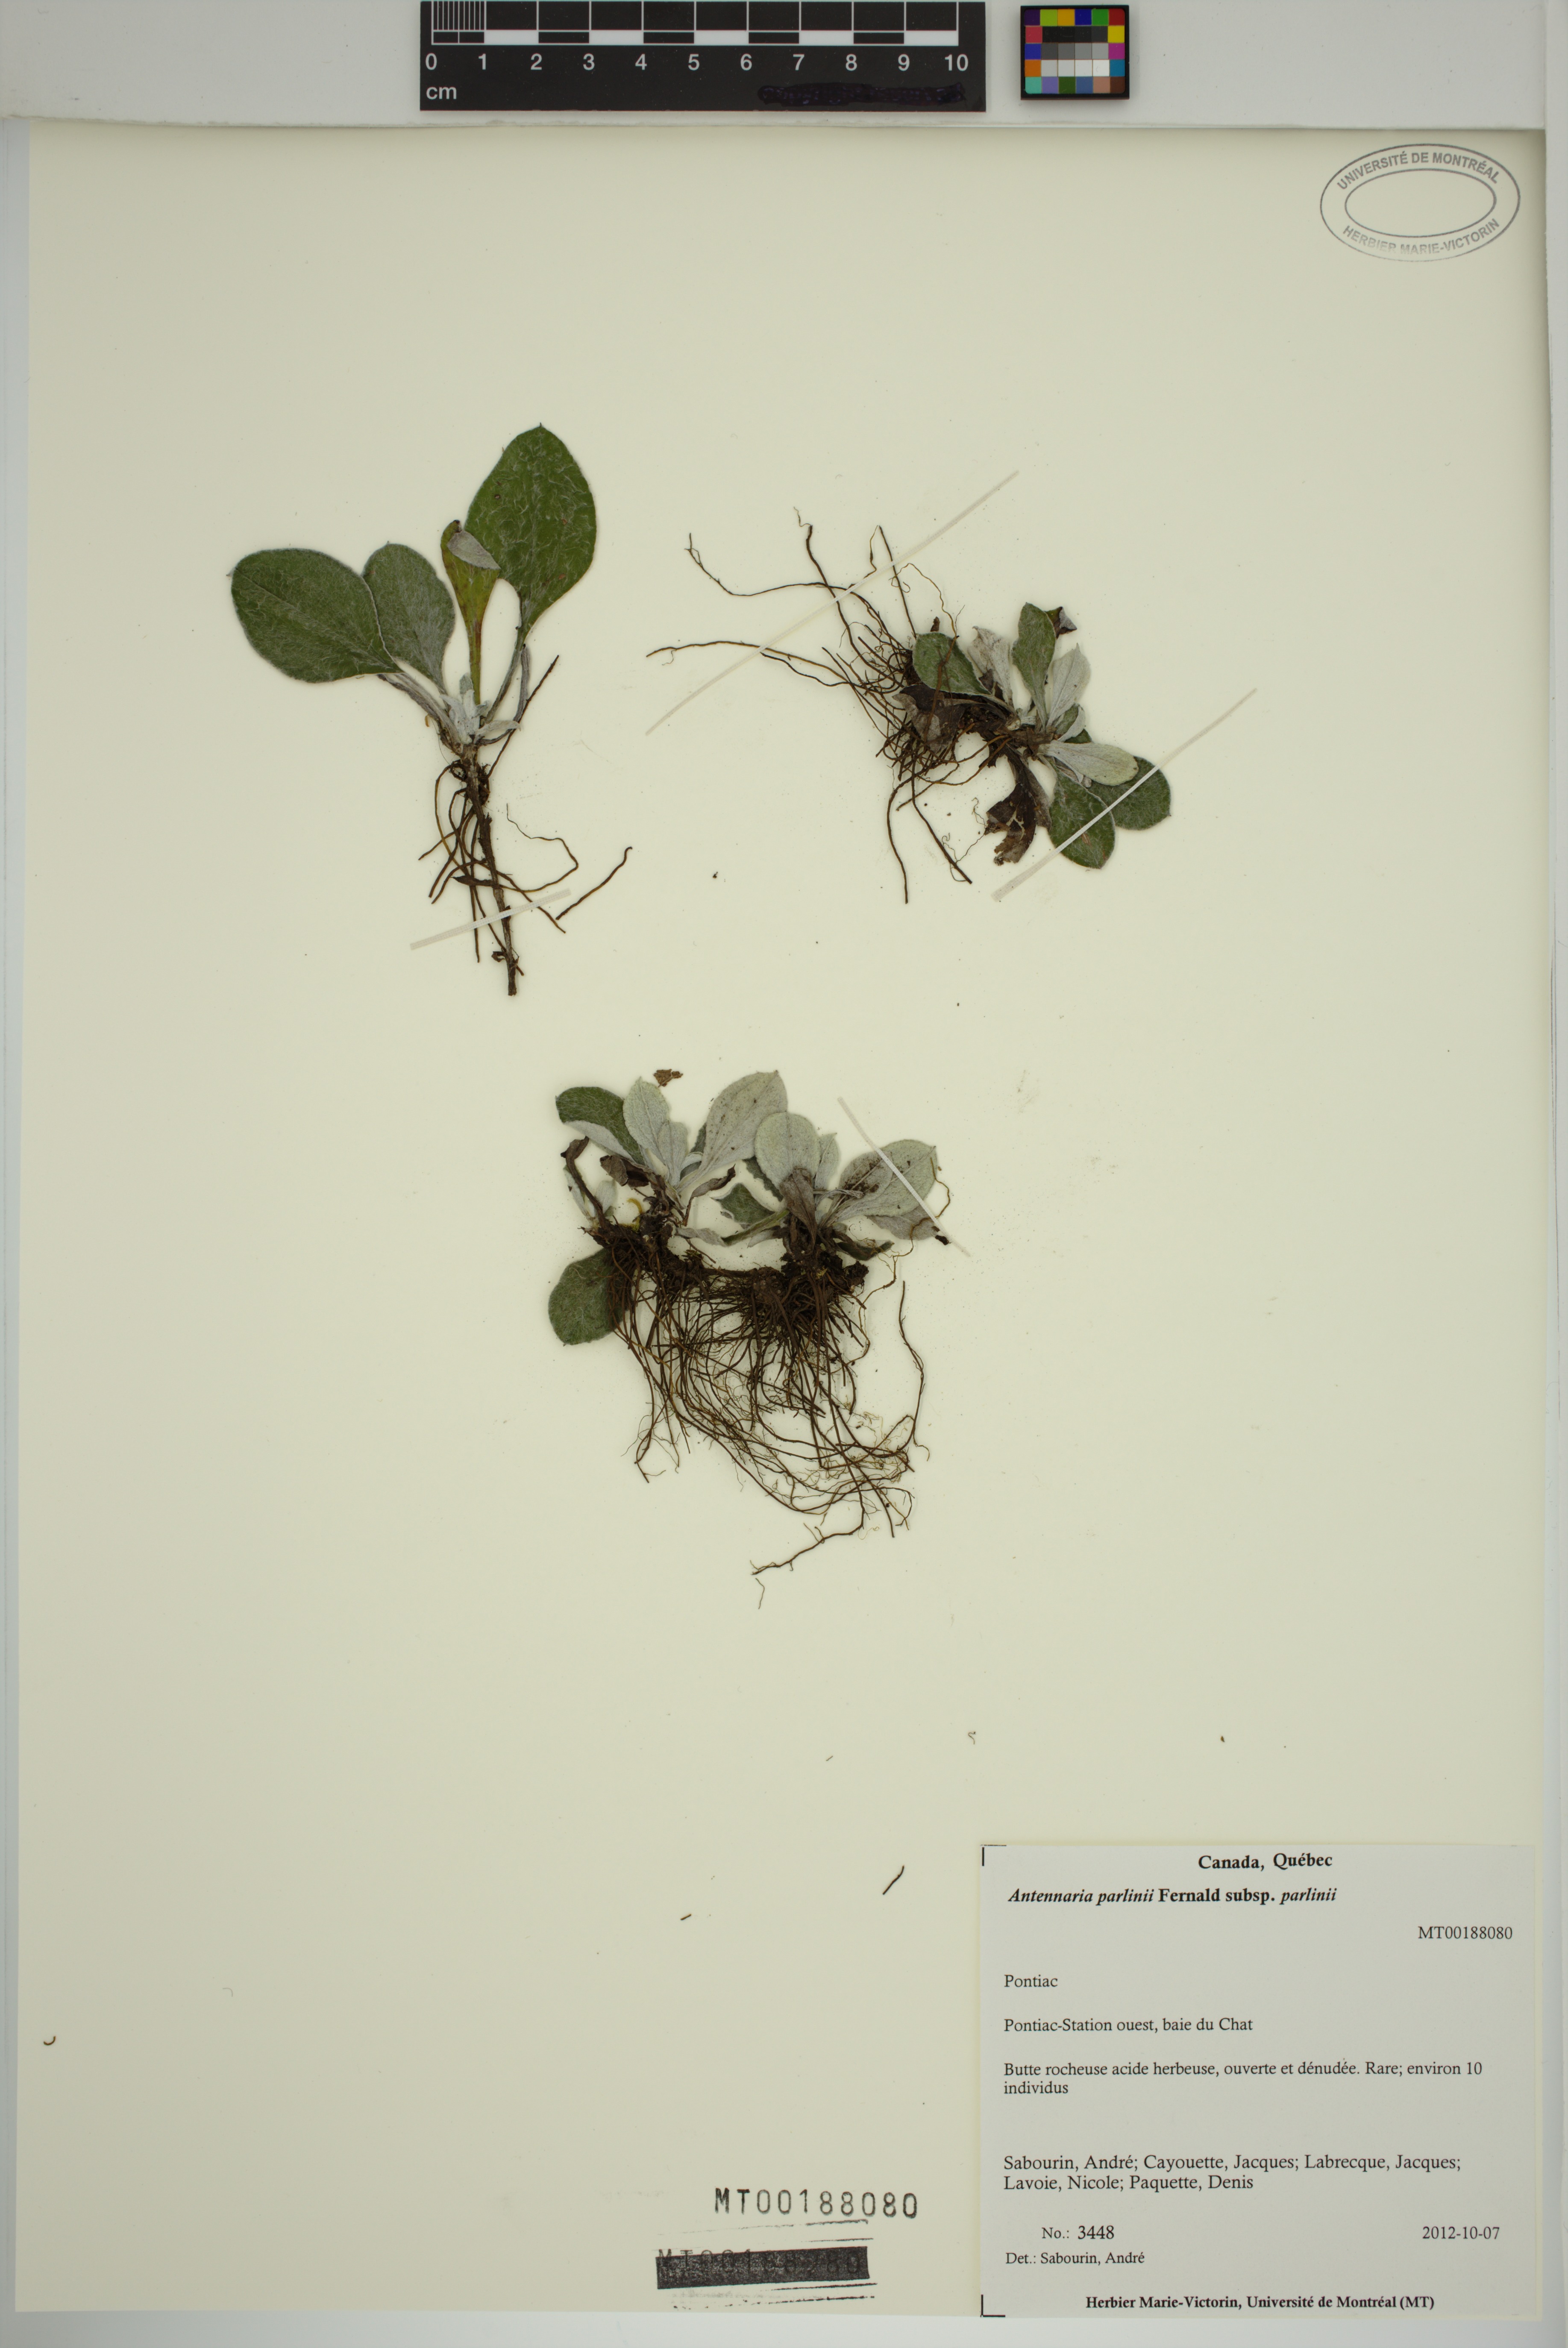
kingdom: Plantae
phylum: Tracheophyta
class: Magnoliopsida
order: Asterales
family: Asteraceae
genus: Antennaria
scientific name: Antennaria parlinii
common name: Parlin's pussytoes
